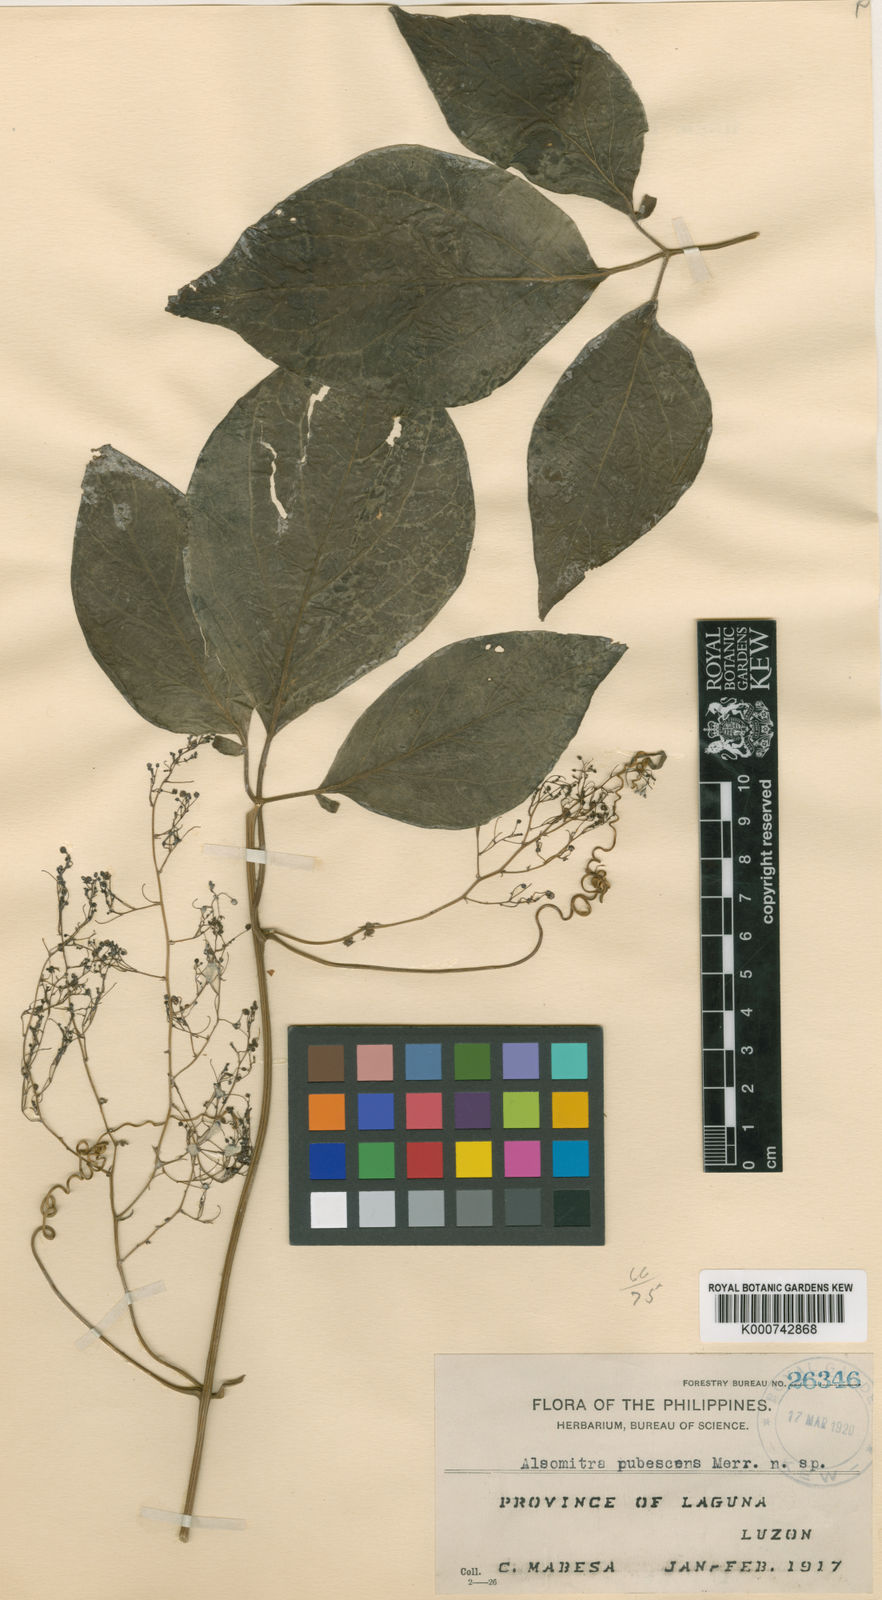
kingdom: Plantae
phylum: Tracheophyta
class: Magnoliopsida
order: Cucurbitales
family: Cucurbitaceae
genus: Neoalsomitra
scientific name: Neoalsomitra
